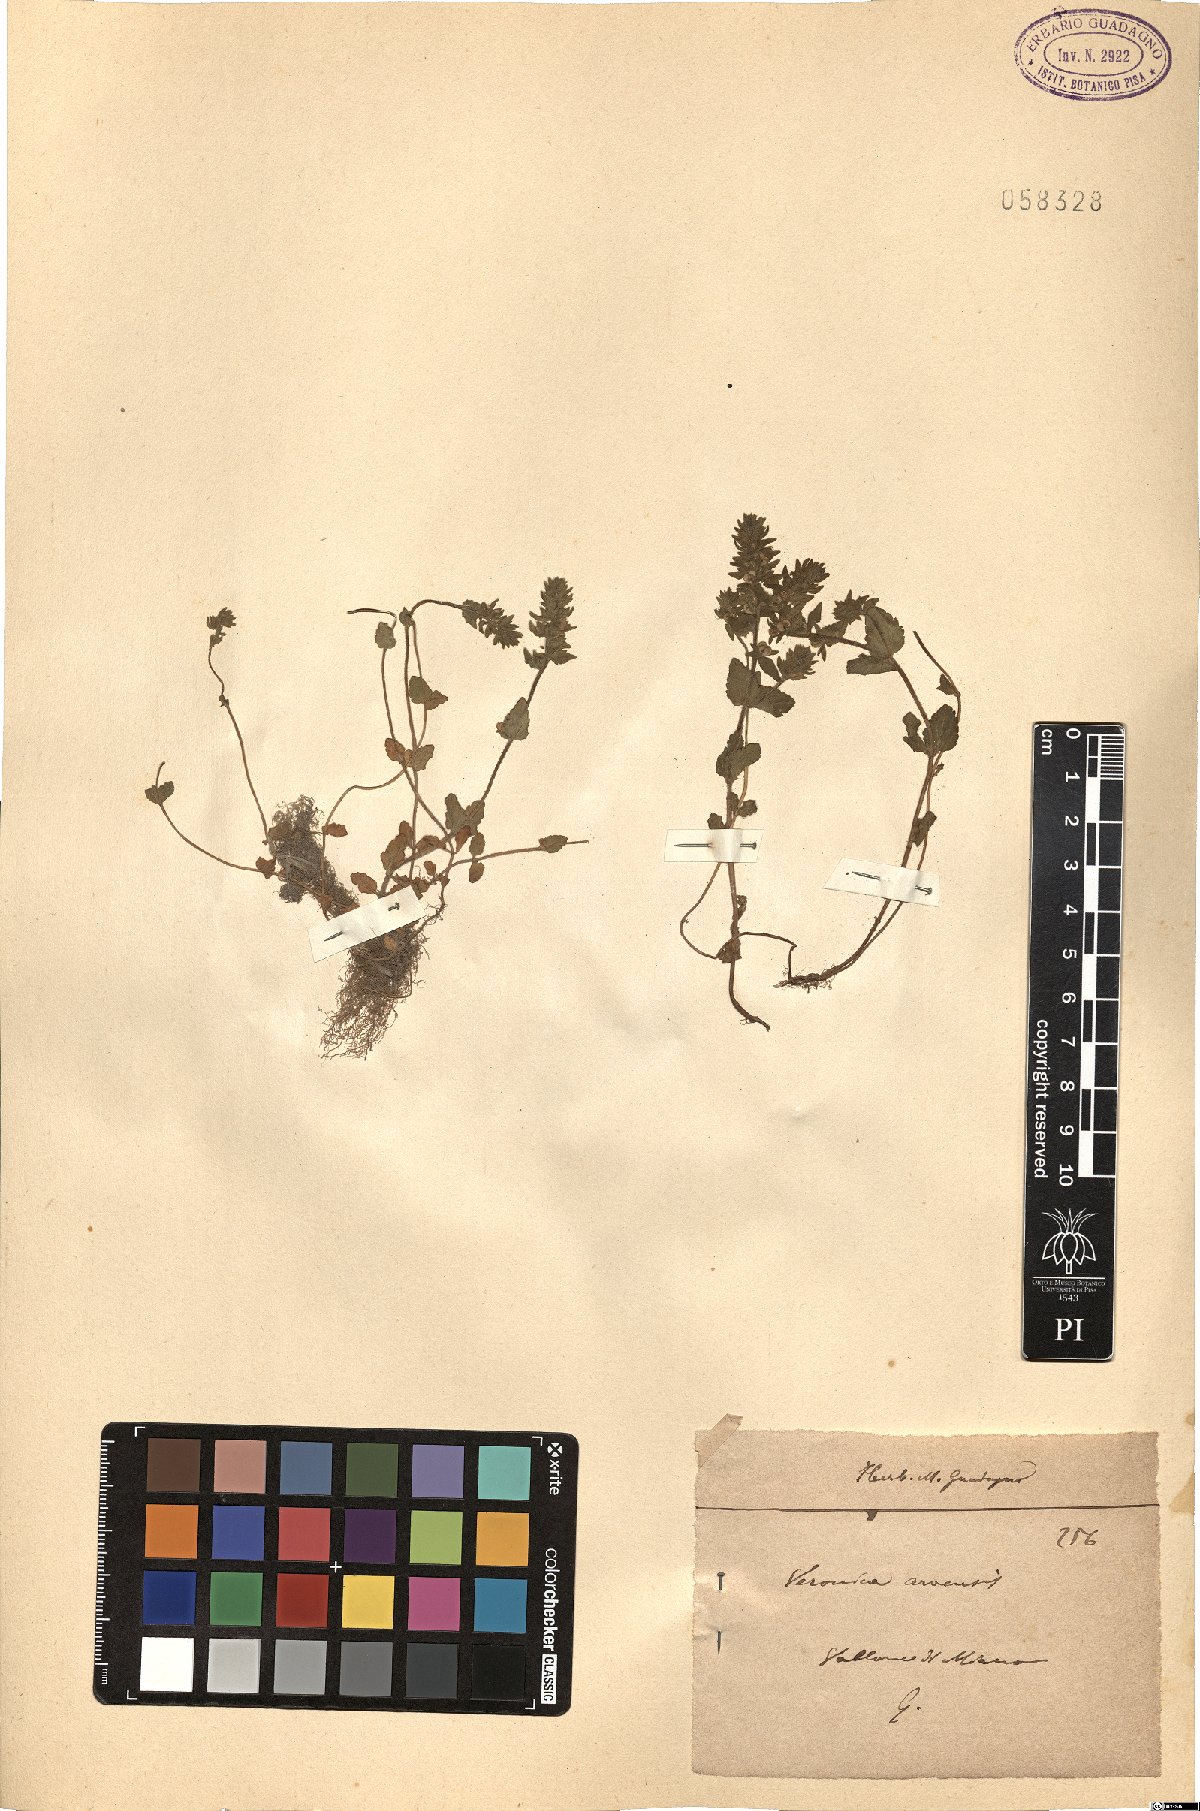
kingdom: Plantae
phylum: Tracheophyta
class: Magnoliopsida
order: Lamiales
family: Plantaginaceae
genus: Veronica
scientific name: Veronica arvensis
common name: Corn speedwell
